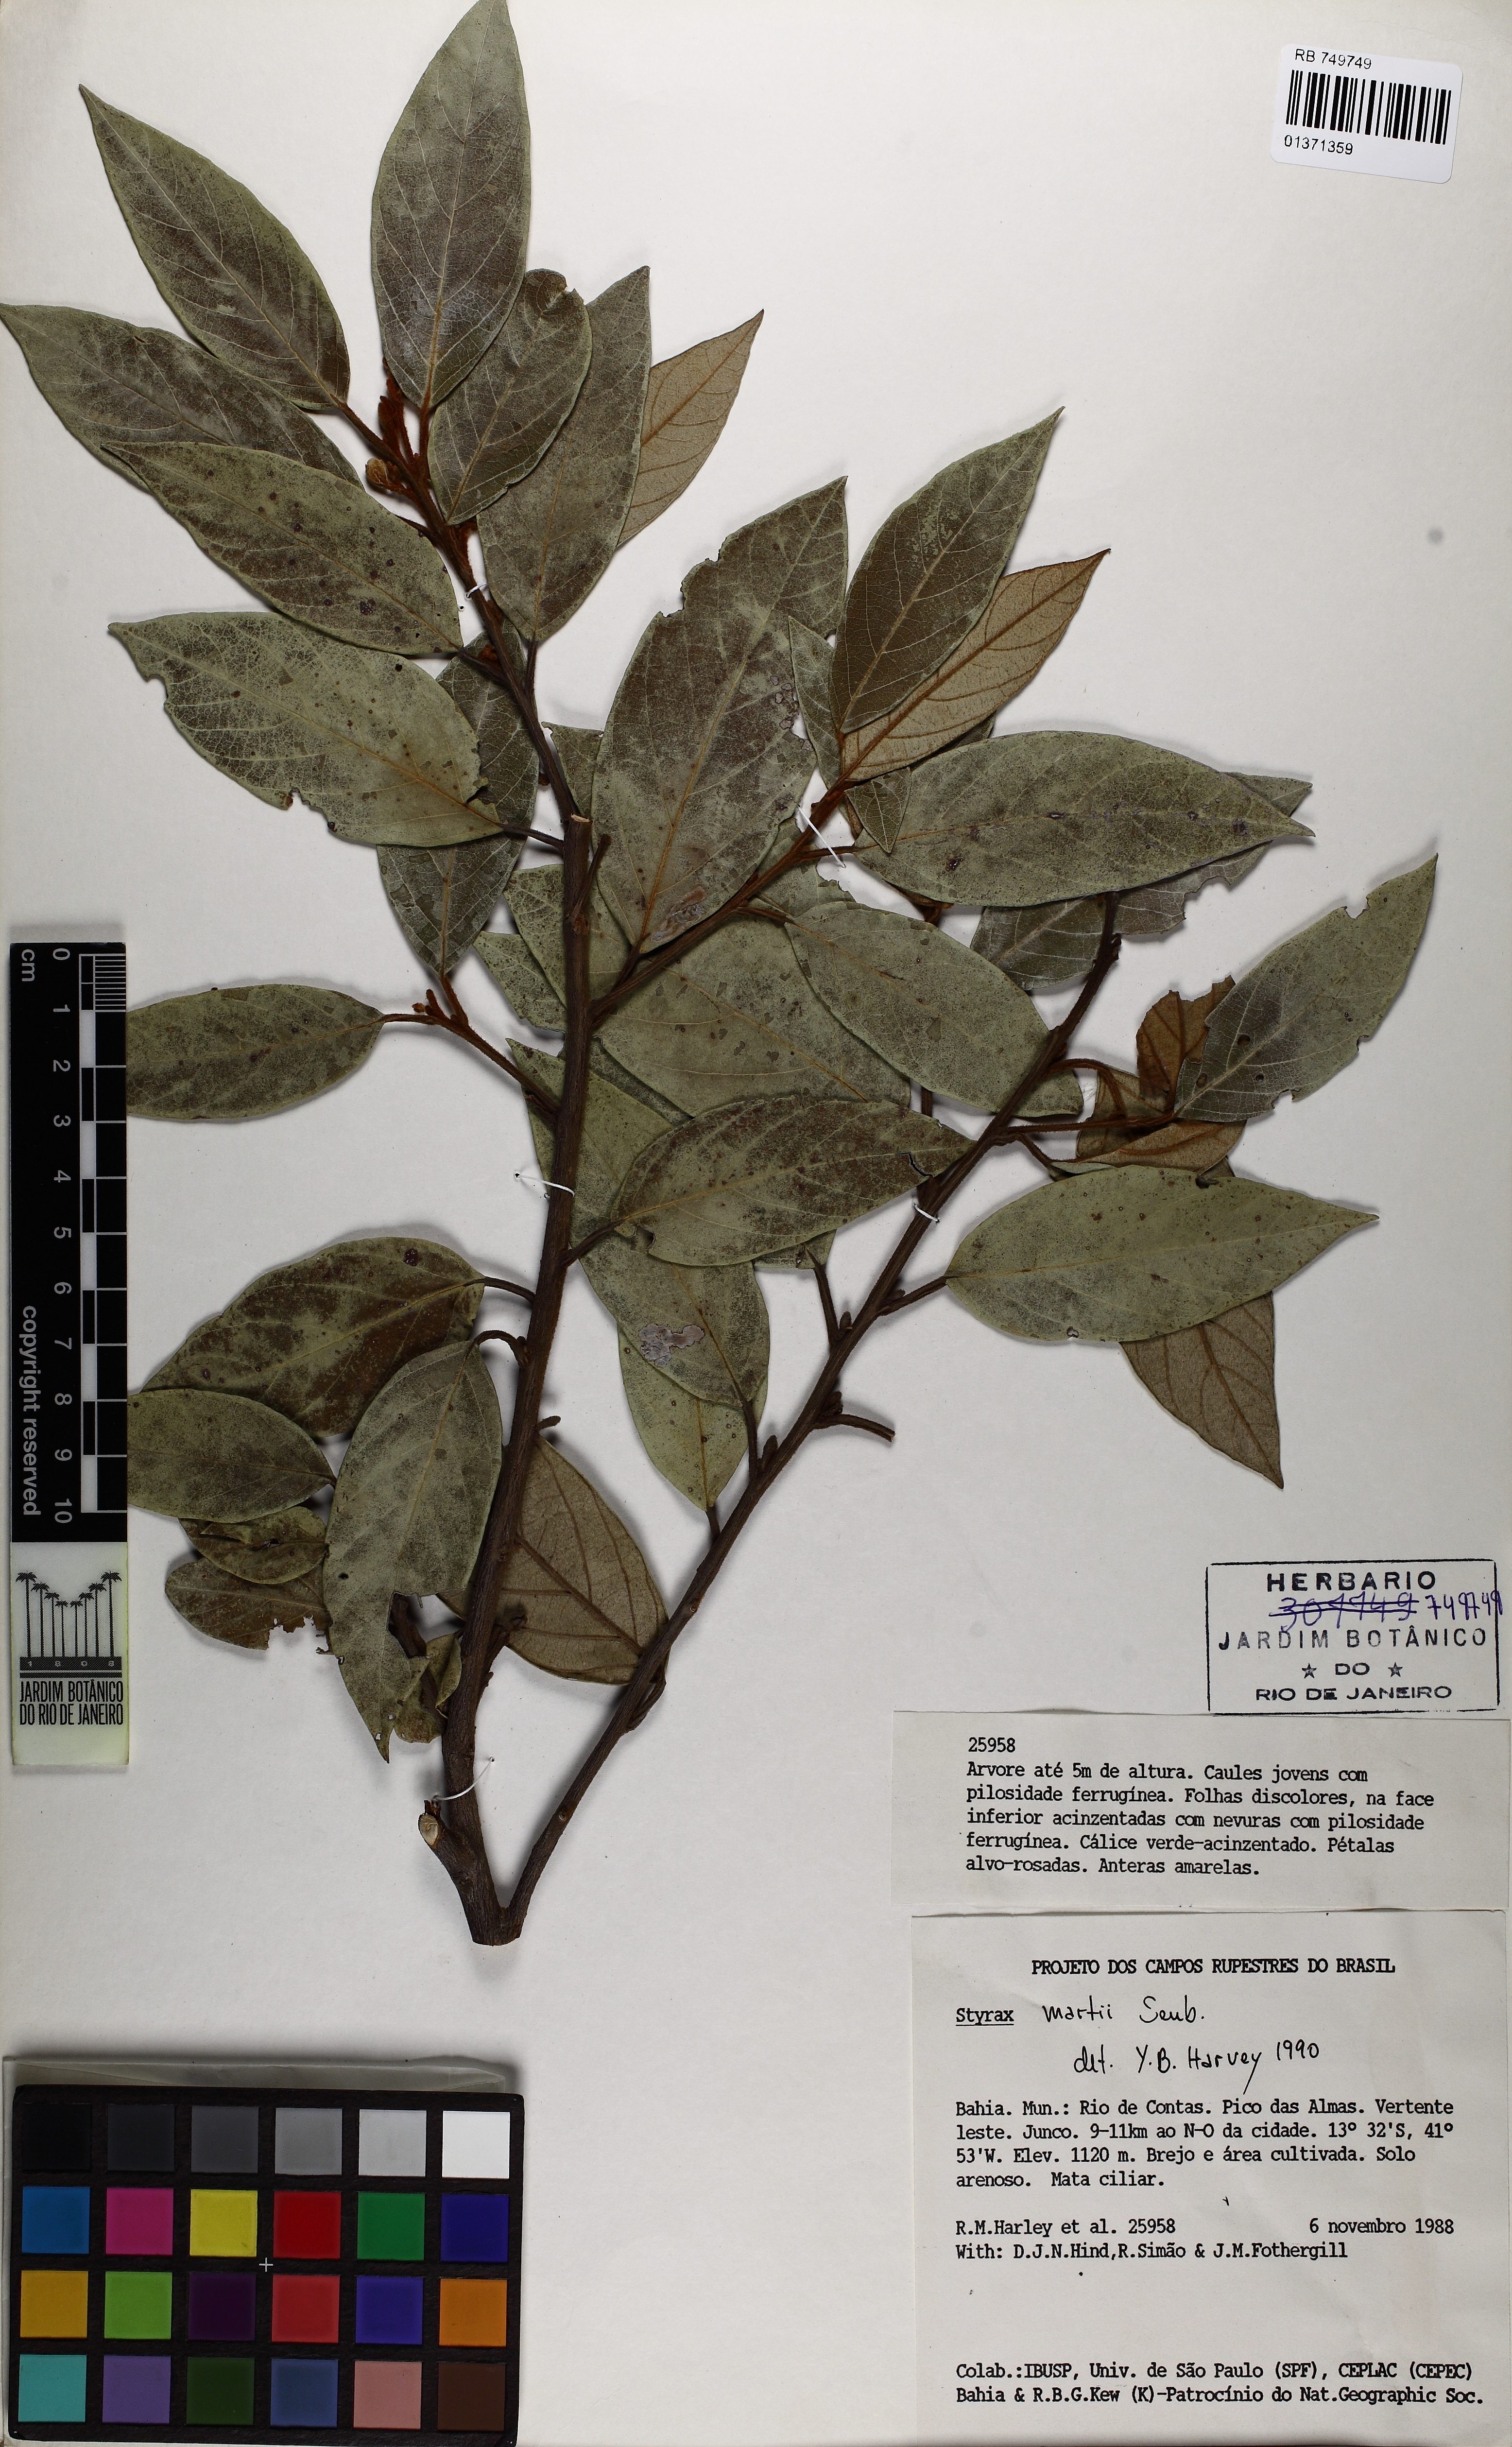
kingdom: Plantae
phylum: Tracheophyta
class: Magnoliopsida
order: Ericales
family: Styracaceae
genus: Styrax
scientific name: Styrax martii
